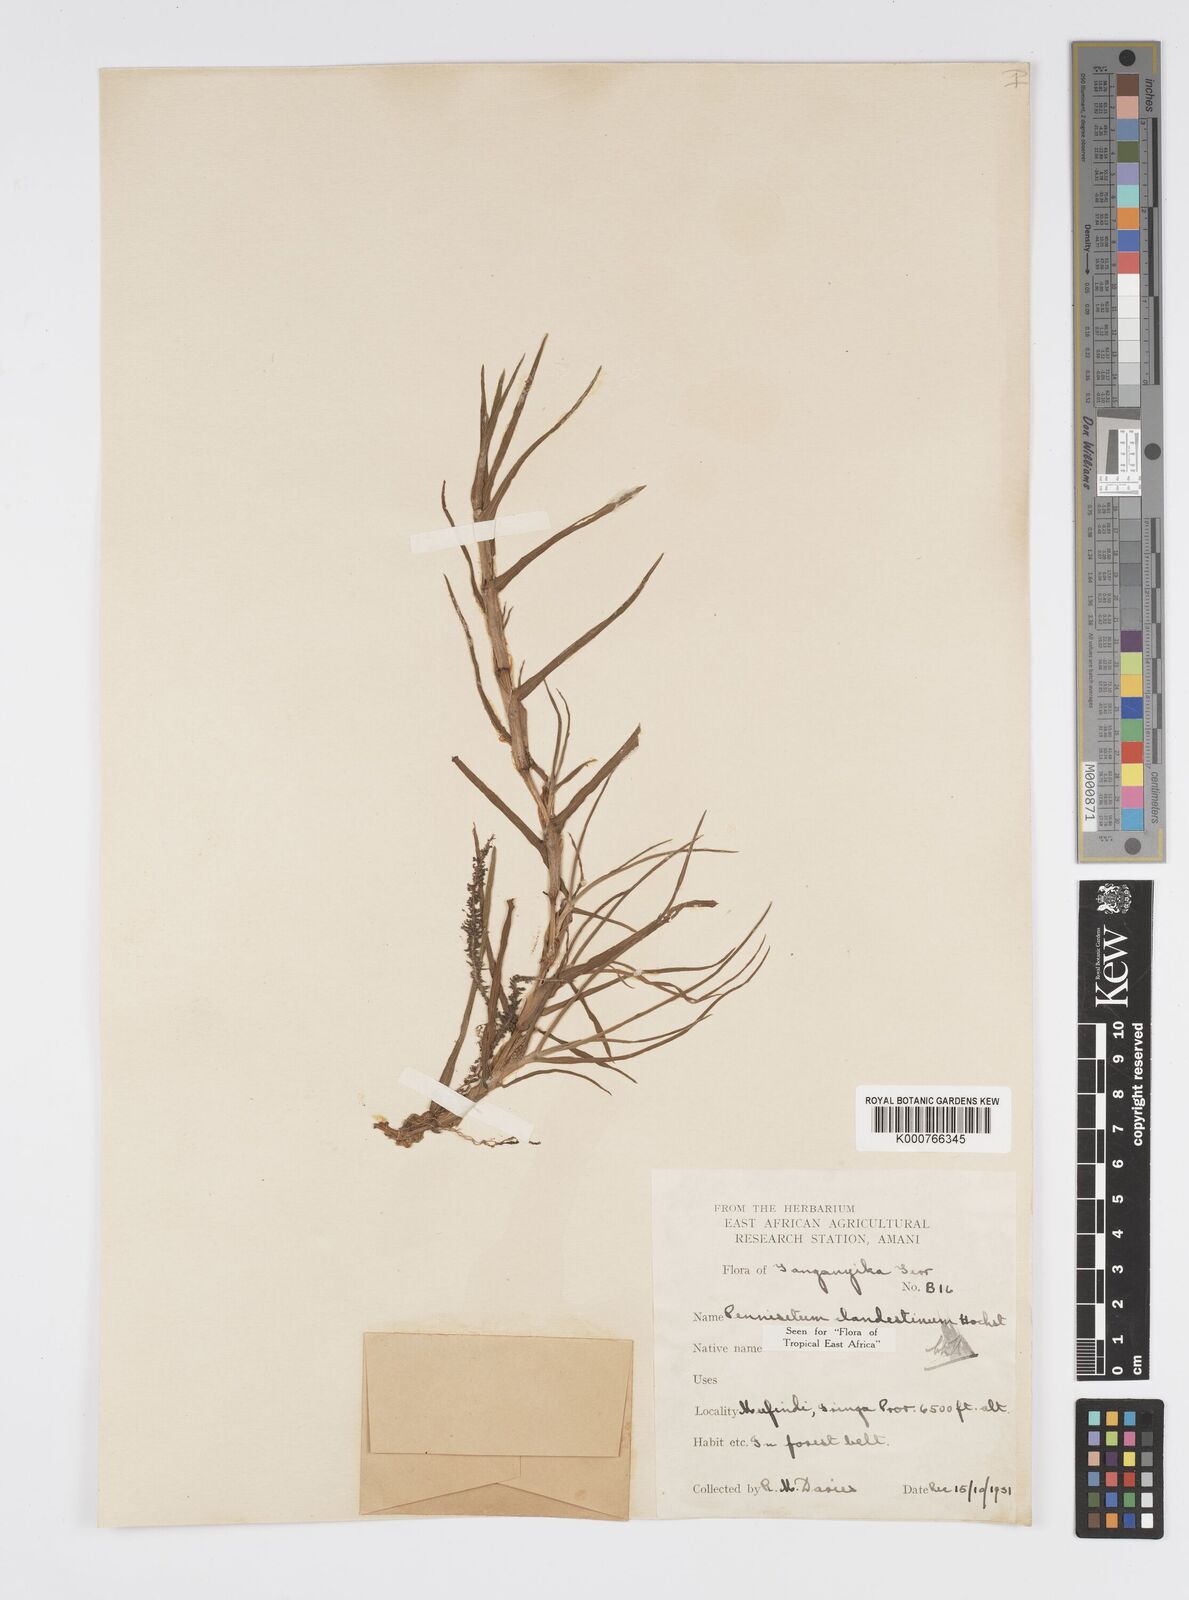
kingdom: Plantae
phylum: Tracheophyta
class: Liliopsida
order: Poales
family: Poaceae
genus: Cenchrus
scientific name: Cenchrus clandestinus
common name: Kikuyugrass
